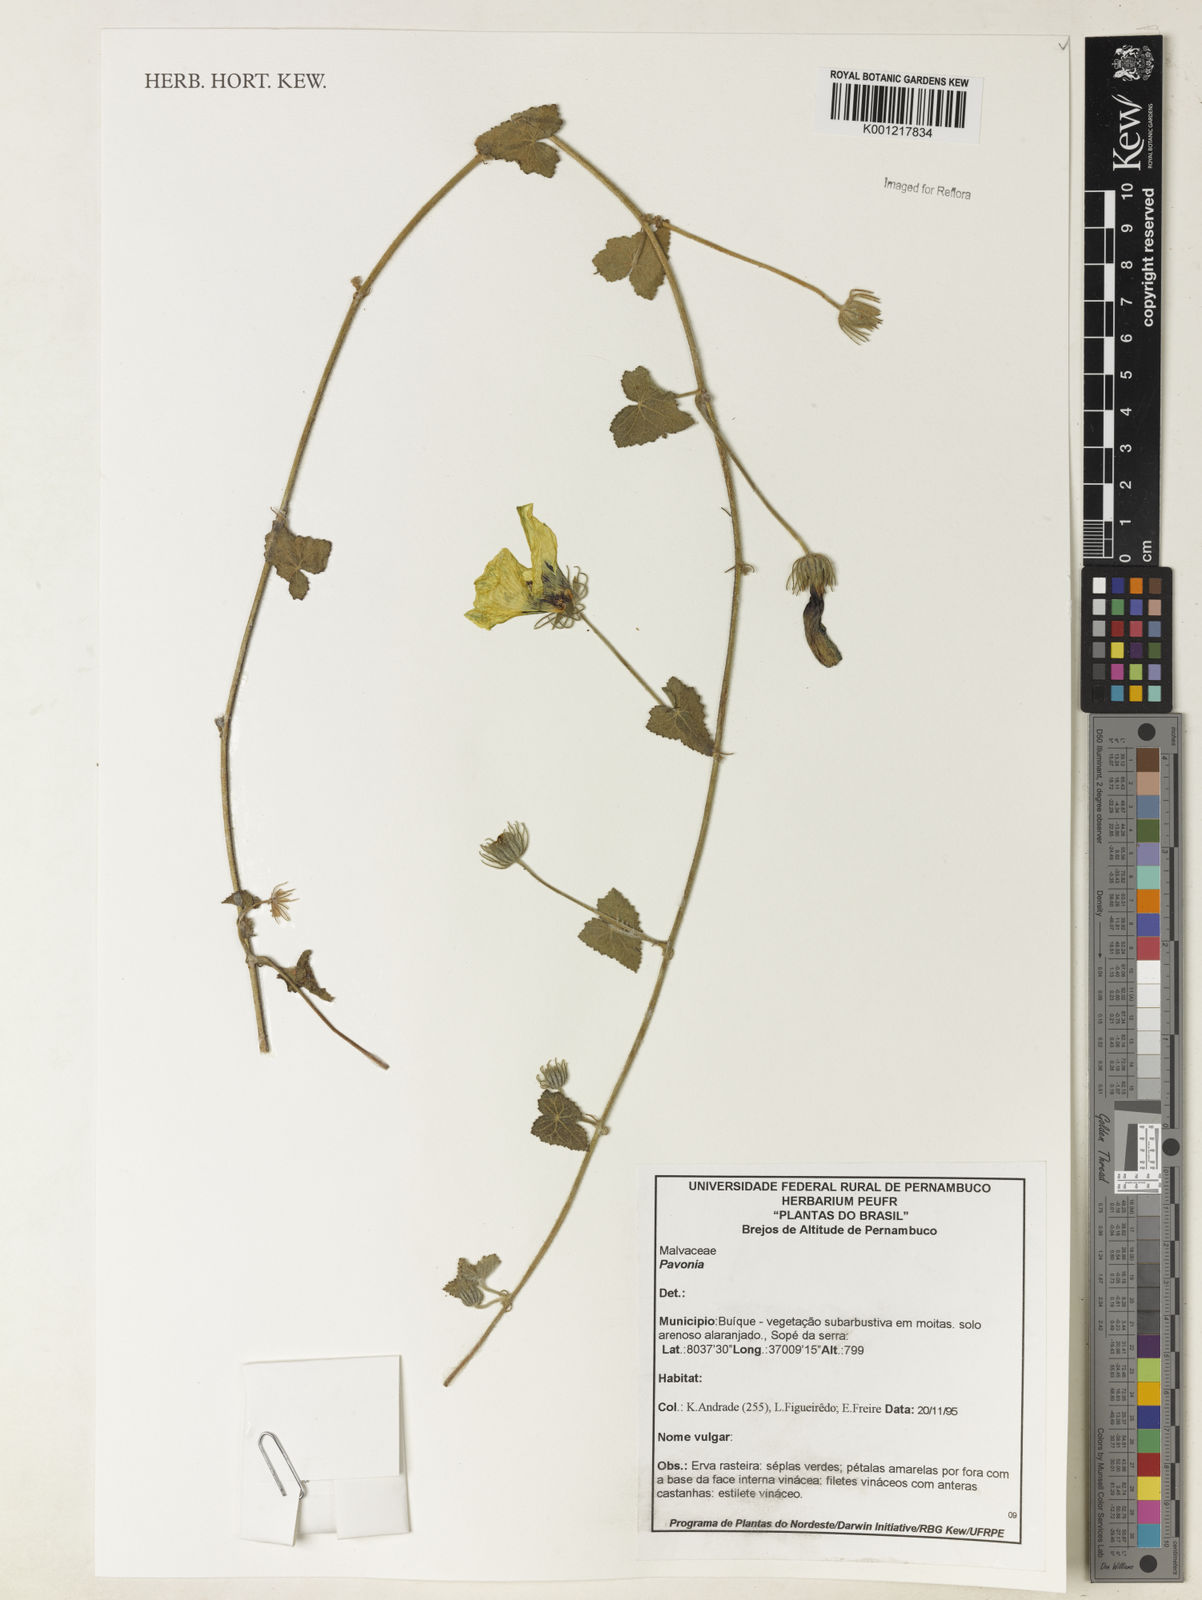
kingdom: Plantae
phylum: Tracheophyta
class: Magnoliopsida
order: Malvales
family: Malvaceae
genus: Pavonia
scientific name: Pavonia
